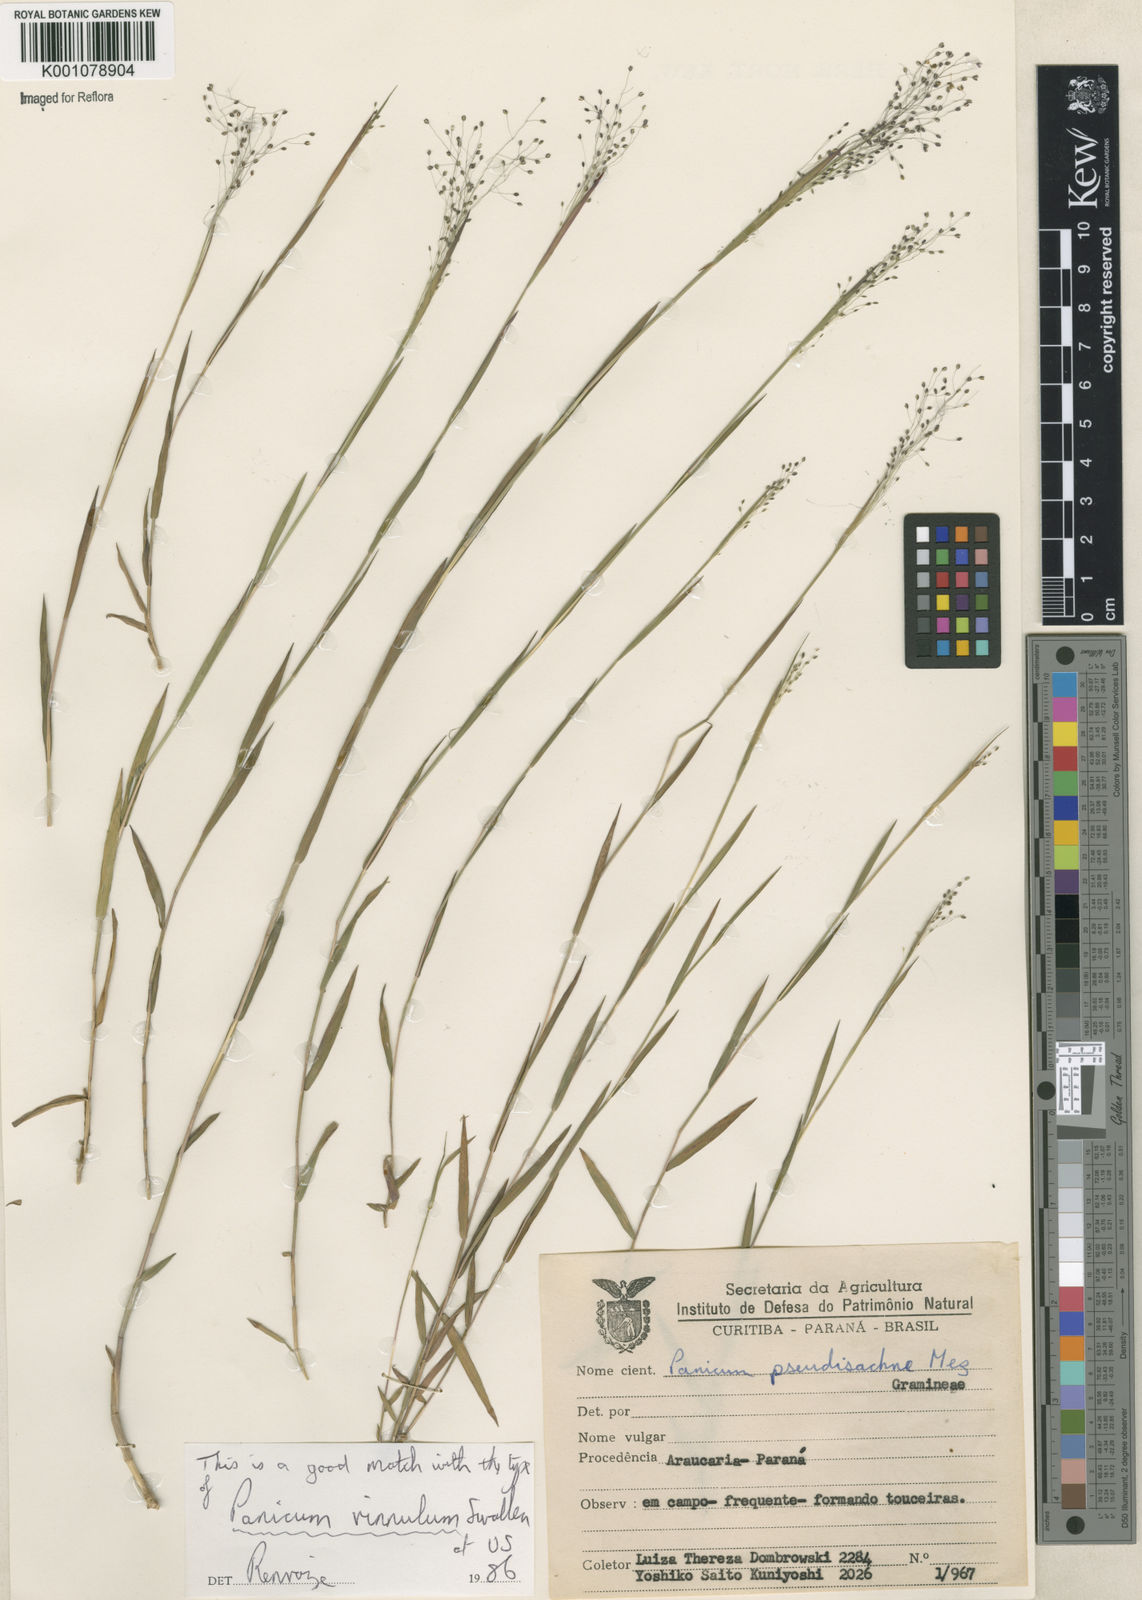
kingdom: Plantae
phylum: Tracheophyta
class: Liliopsida
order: Poales
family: Poaceae
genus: Trichanthecium
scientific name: Trichanthecium cyanescens
